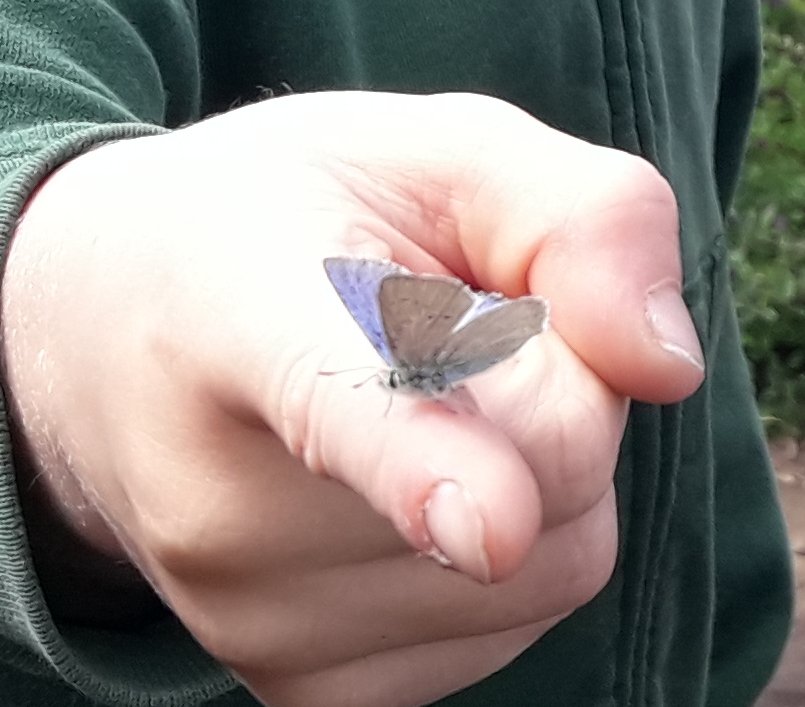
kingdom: Animalia
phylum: Arthropoda
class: Insecta
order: Lepidoptera
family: Lycaenidae
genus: Glaucopsyche
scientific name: Glaucopsyche lygdamus
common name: Silvery Blue
